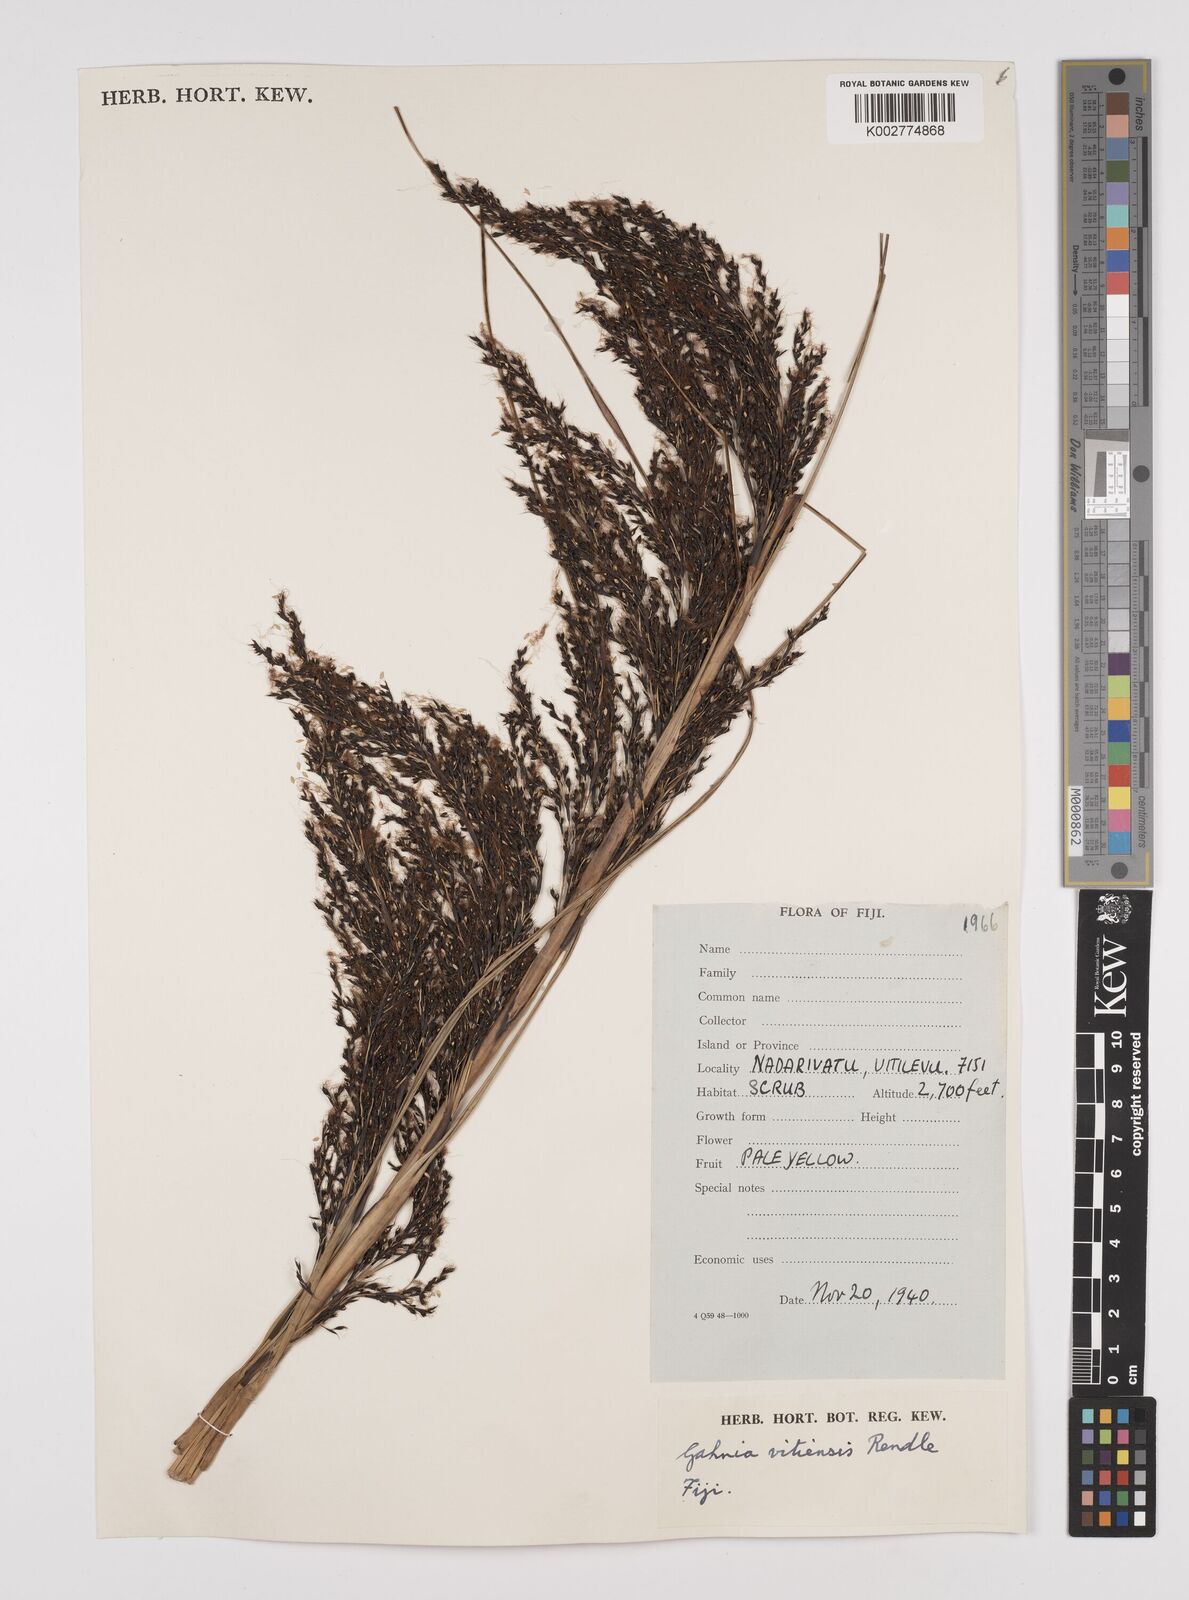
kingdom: Plantae
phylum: Tracheophyta
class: Liliopsida
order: Poales
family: Cyperaceae
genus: Gahnia
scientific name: Gahnia vitiensis
